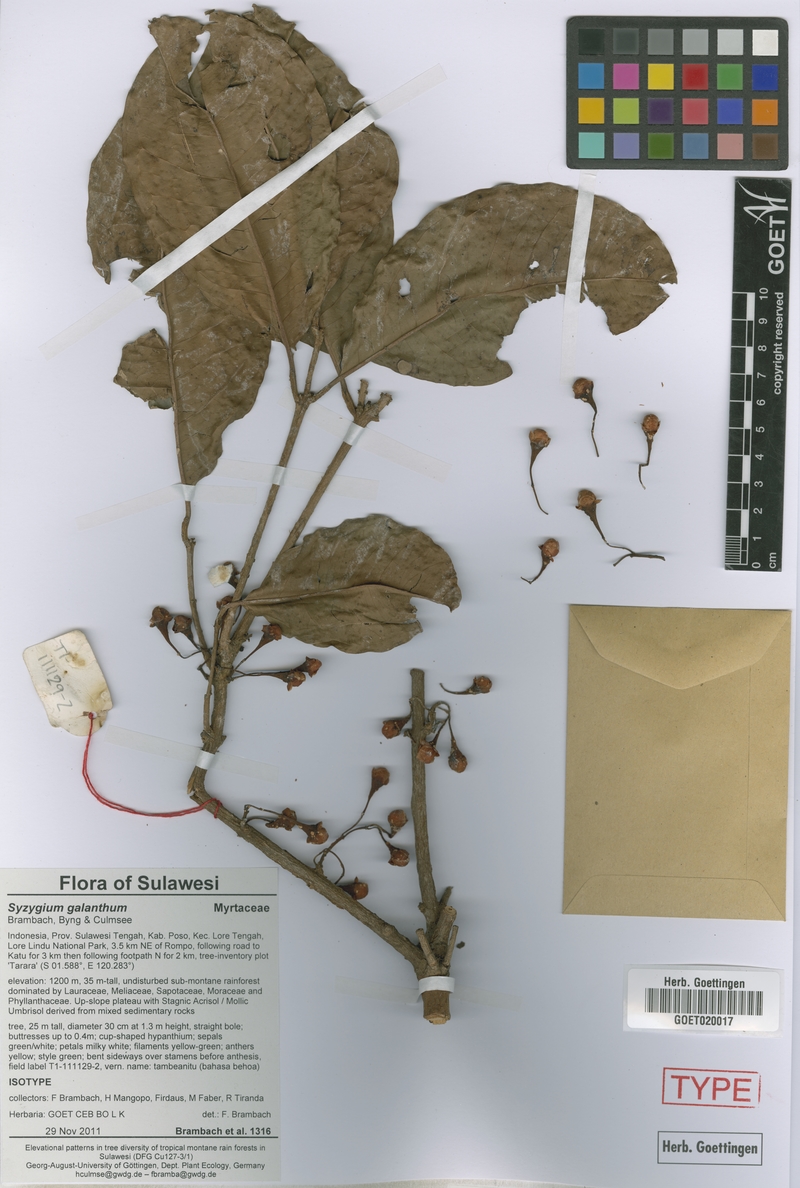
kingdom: Plantae
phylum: Tracheophyta
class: Magnoliopsida
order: Myrtales
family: Myrtaceae
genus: Syzygium
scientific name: Syzygium galanthum
